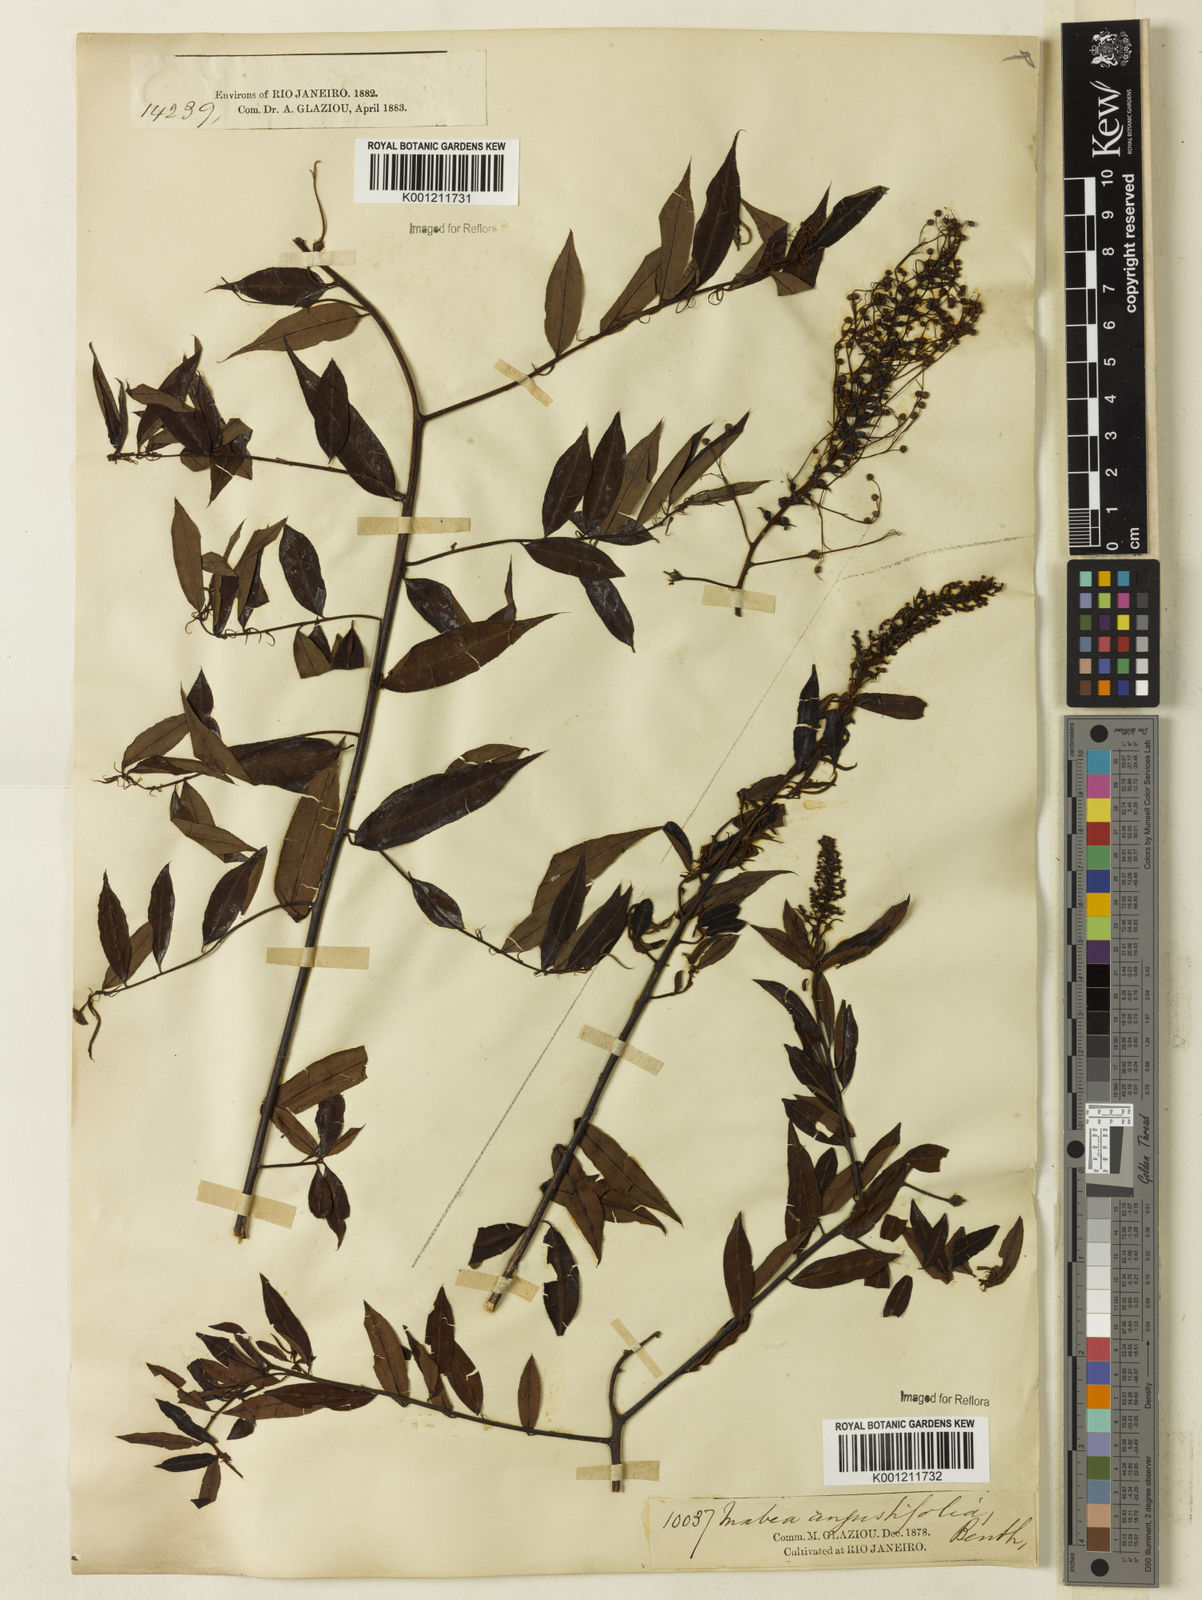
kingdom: Plantae
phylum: Tracheophyta
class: Magnoliopsida
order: Malpighiales
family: Euphorbiaceae
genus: Mabea
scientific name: Mabea angustifolia
